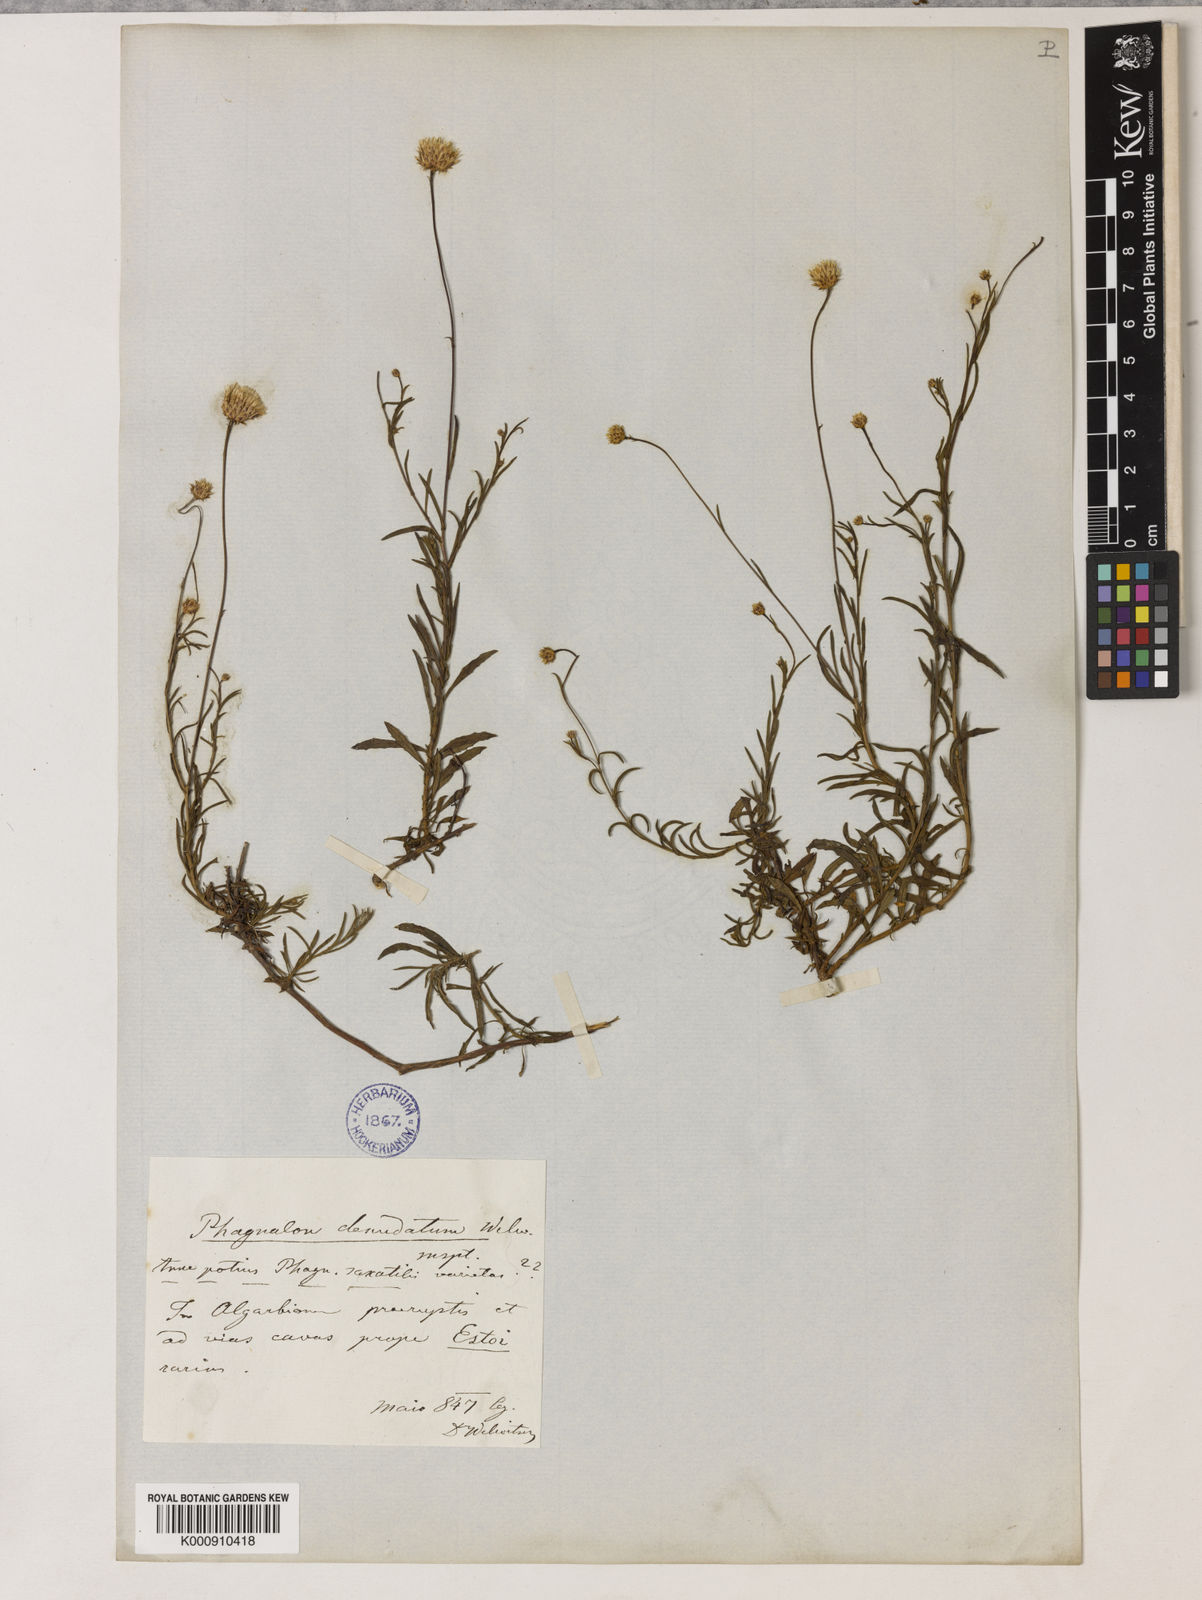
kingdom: Plantae
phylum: Tracheophyta
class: Magnoliopsida
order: Asterales
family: Asteraceae
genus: Phagnalon
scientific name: Phagnalon rupestre
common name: Rock phagnalon
